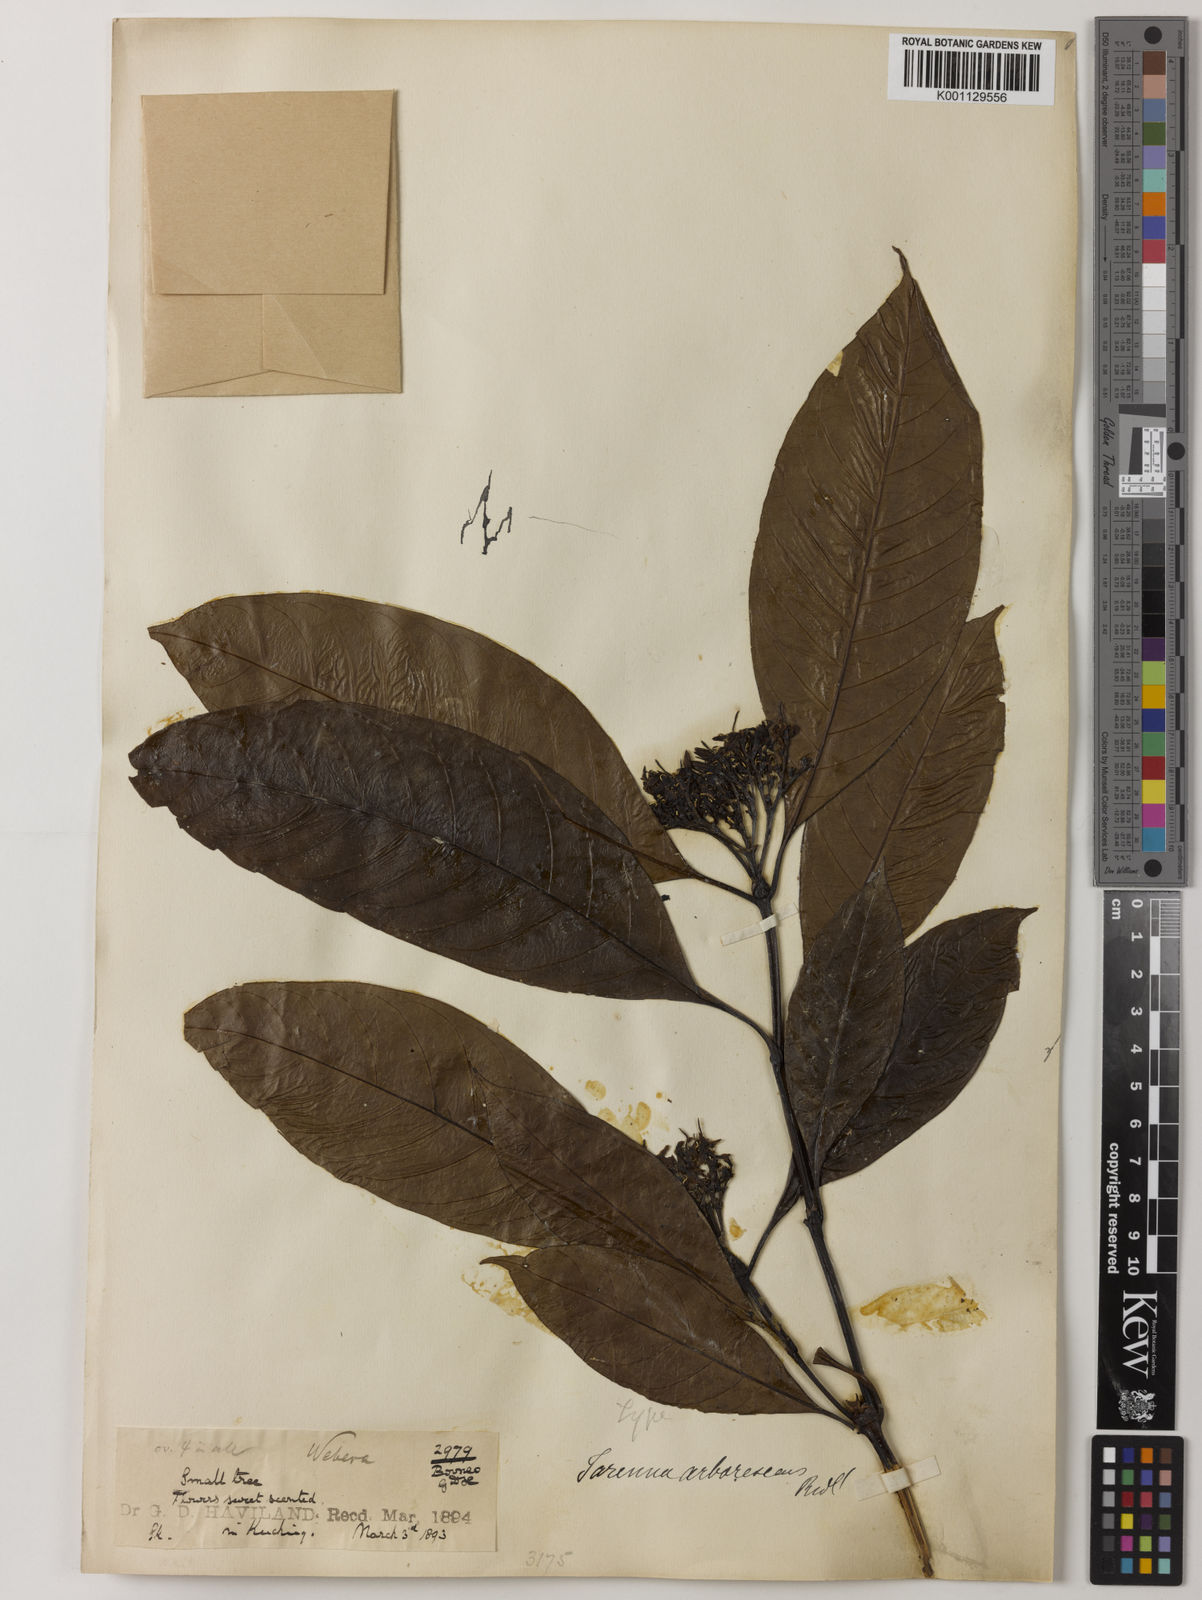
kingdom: Plantae
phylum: Tracheophyta
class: Magnoliopsida
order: Gentianales
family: Rubiaceae
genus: Tarenna
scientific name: Tarenna arborescens
